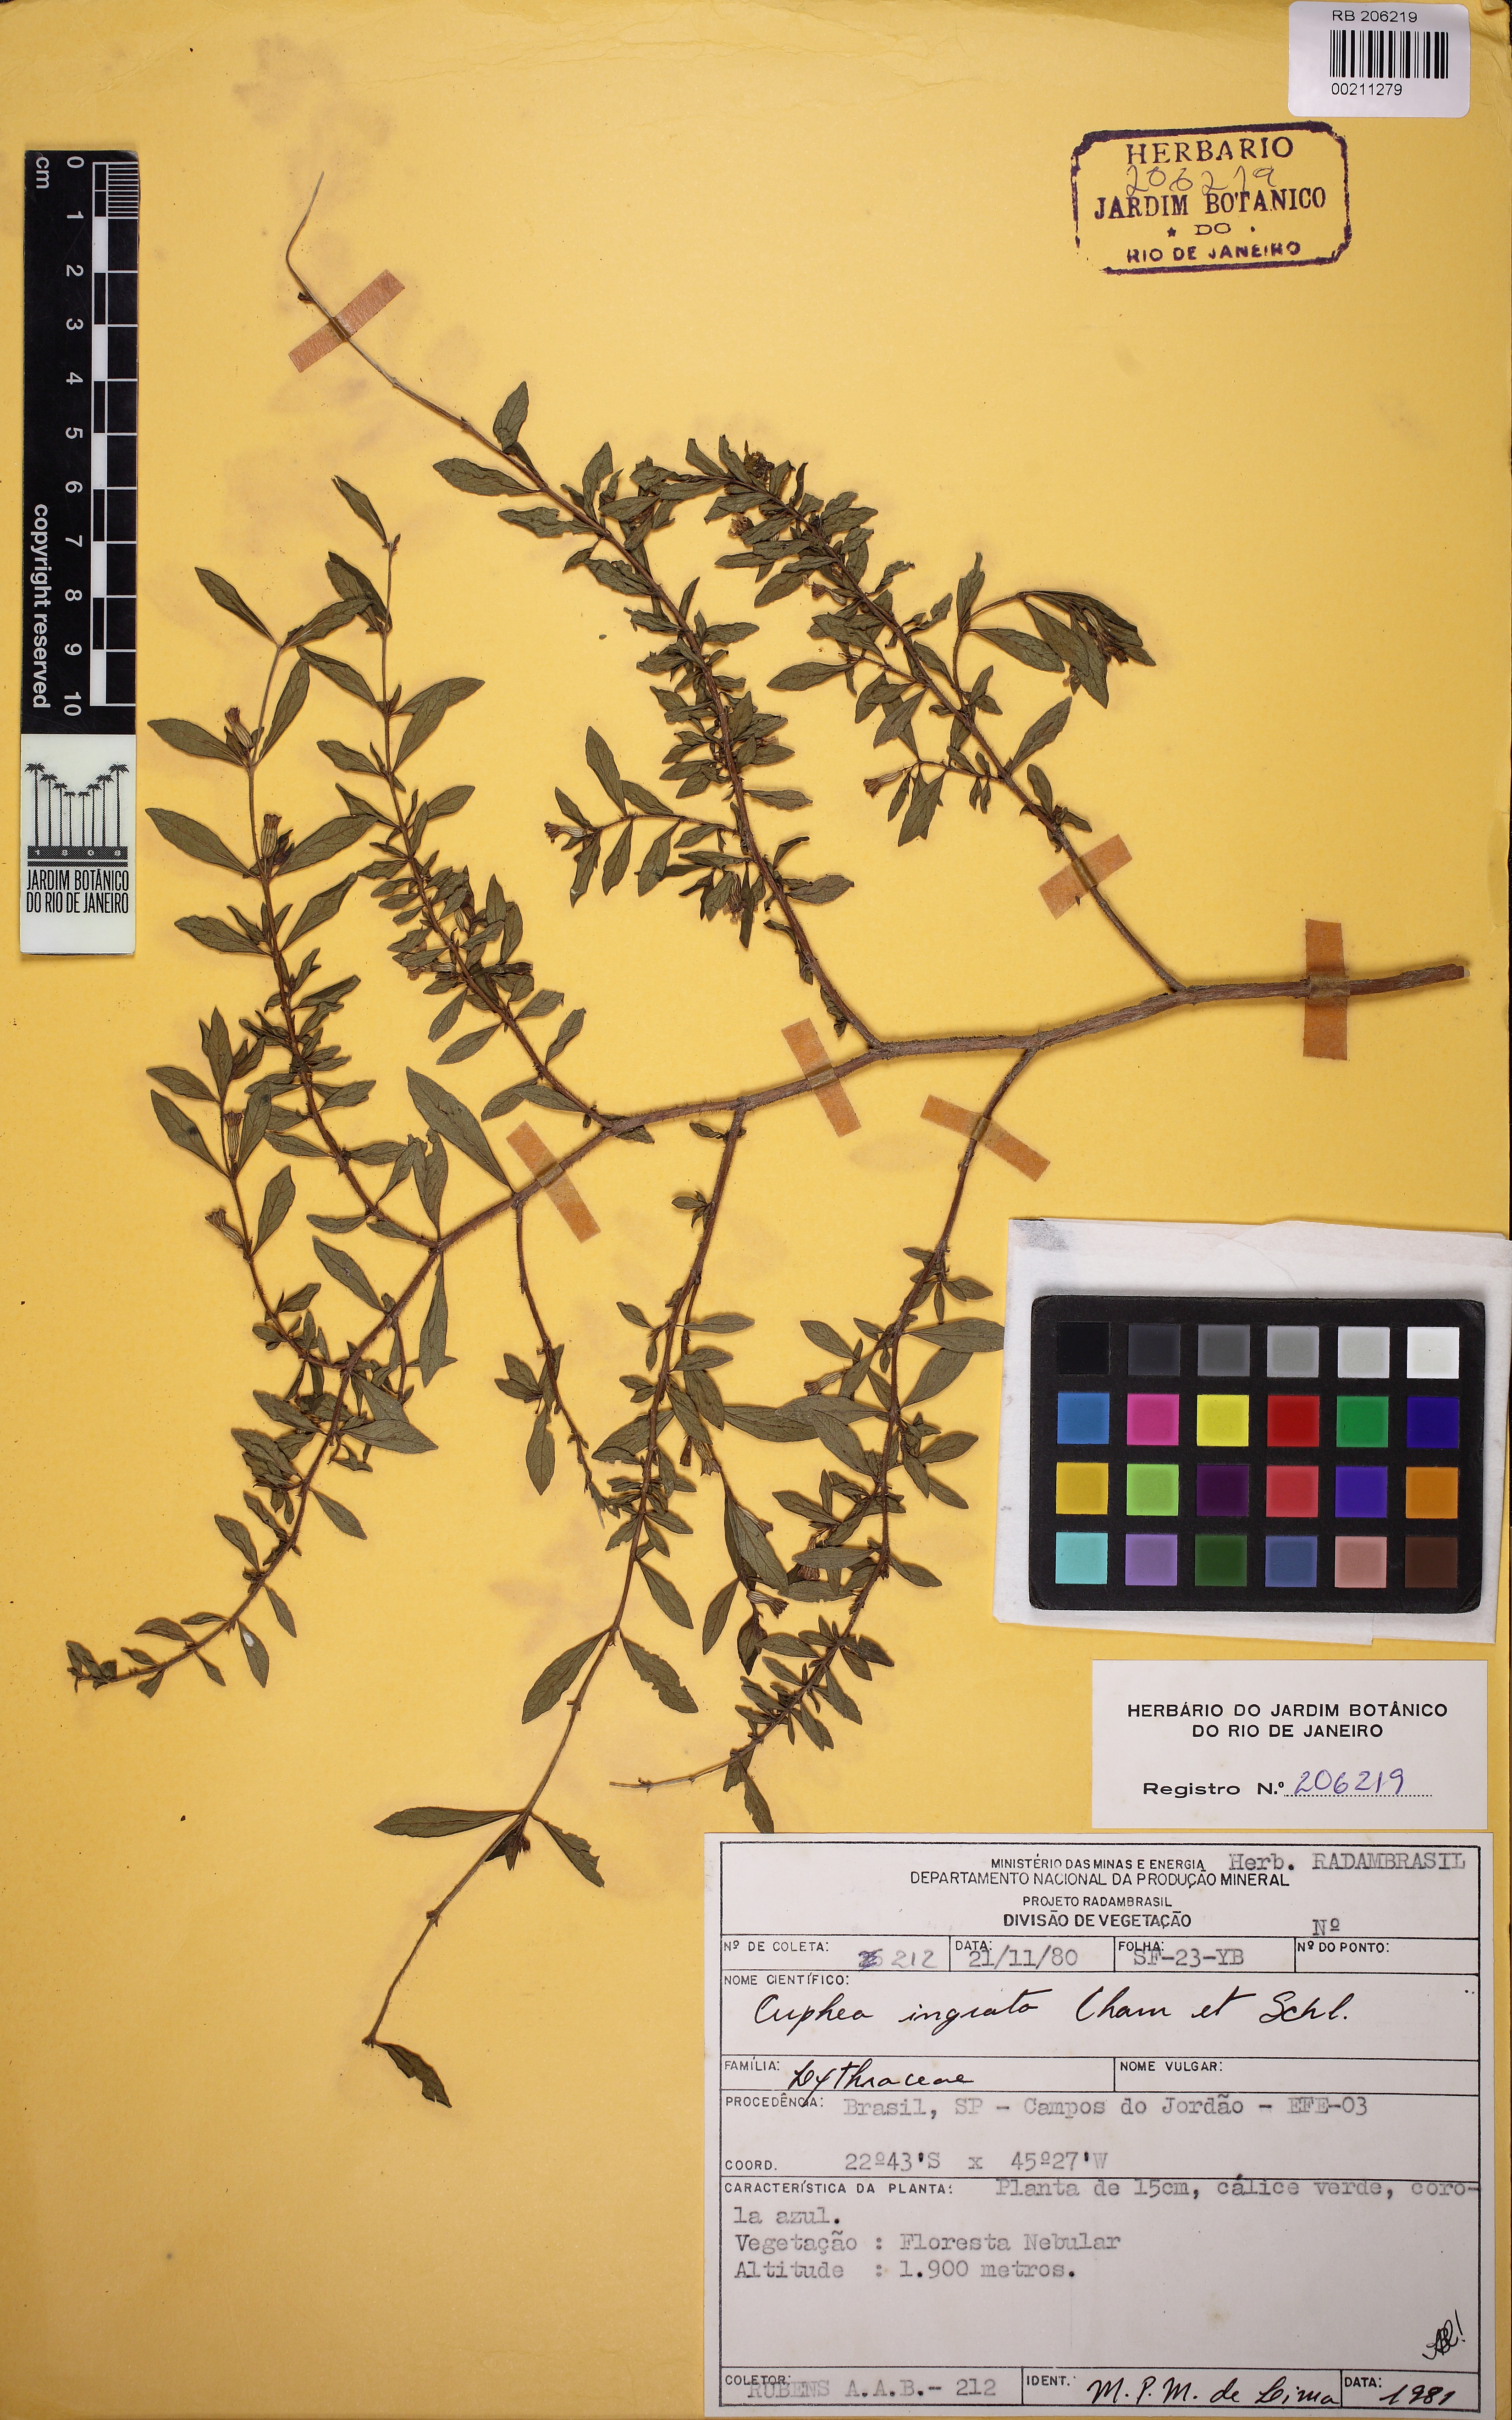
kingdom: Plantae
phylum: Tracheophyta
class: Magnoliopsida
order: Myrtales
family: Lythraceae
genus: Cuphea
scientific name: Cuphea ingrata
